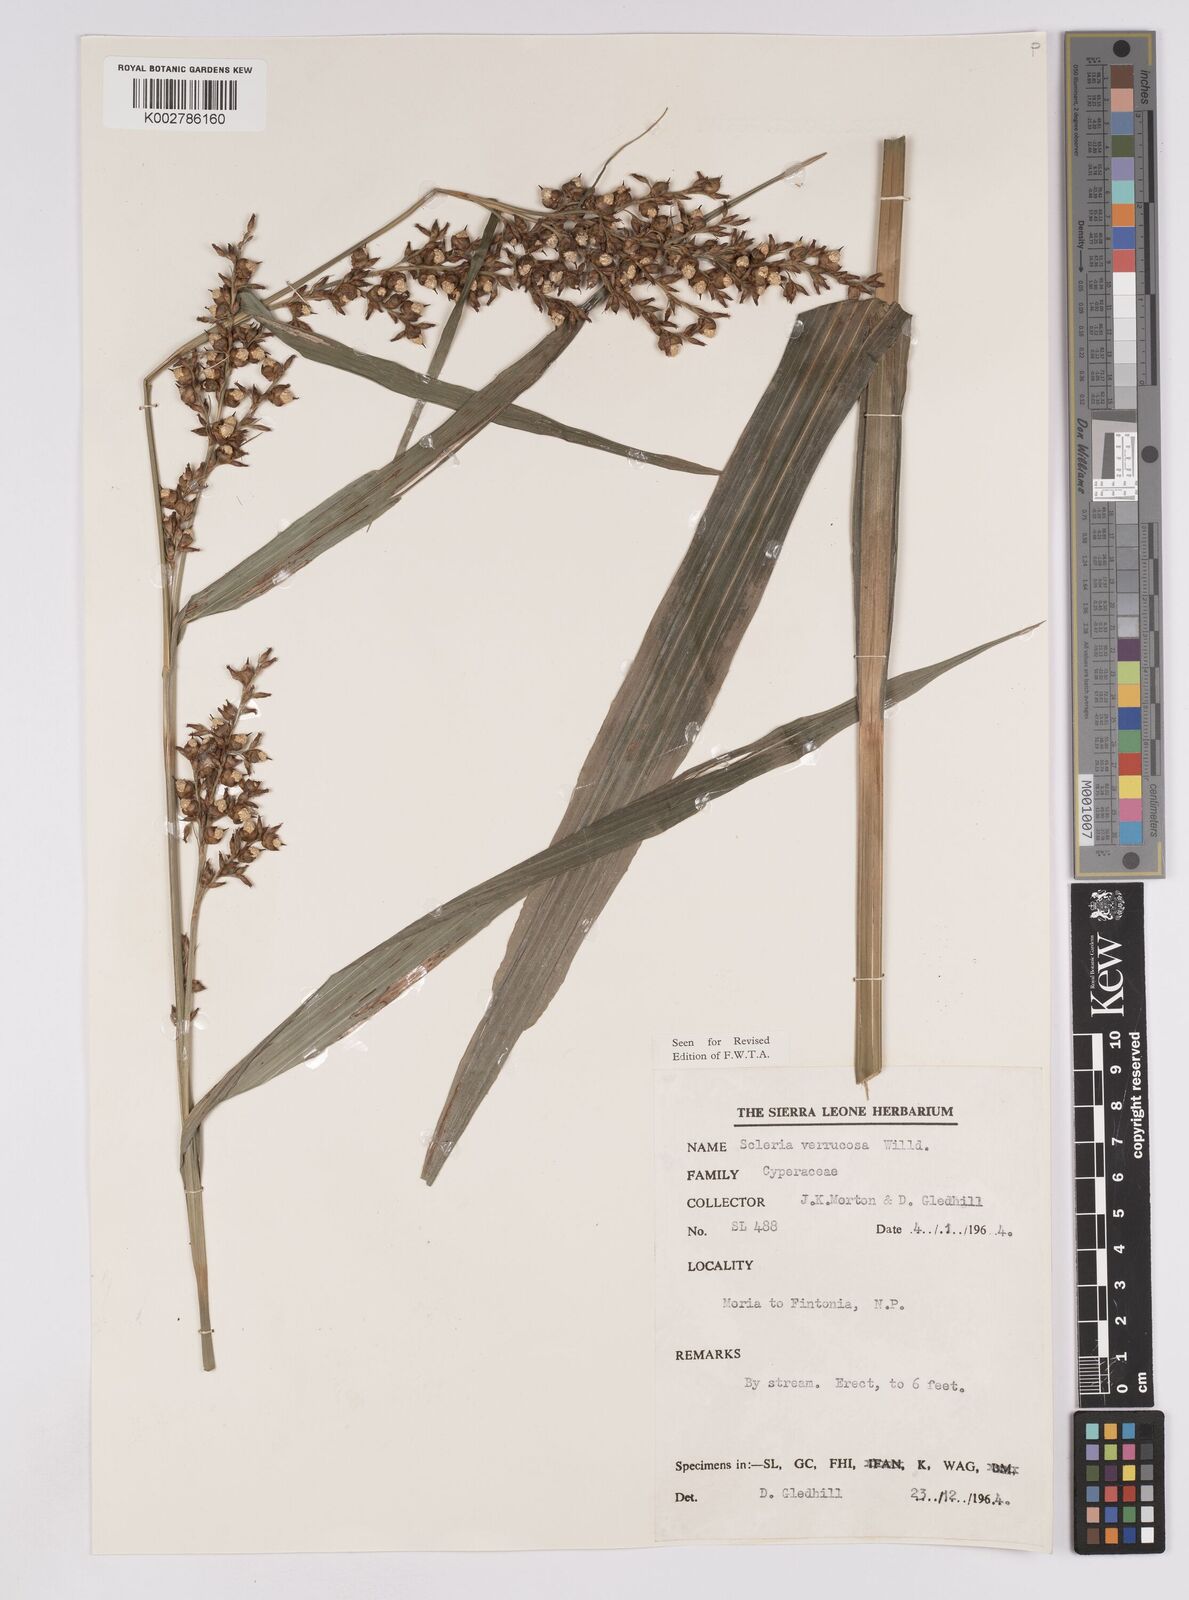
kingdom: Plantae
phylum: Tracheophyta
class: Liliopsida
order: Poales
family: Cyperaceae
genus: Scleria
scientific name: Scleria verrucosa
